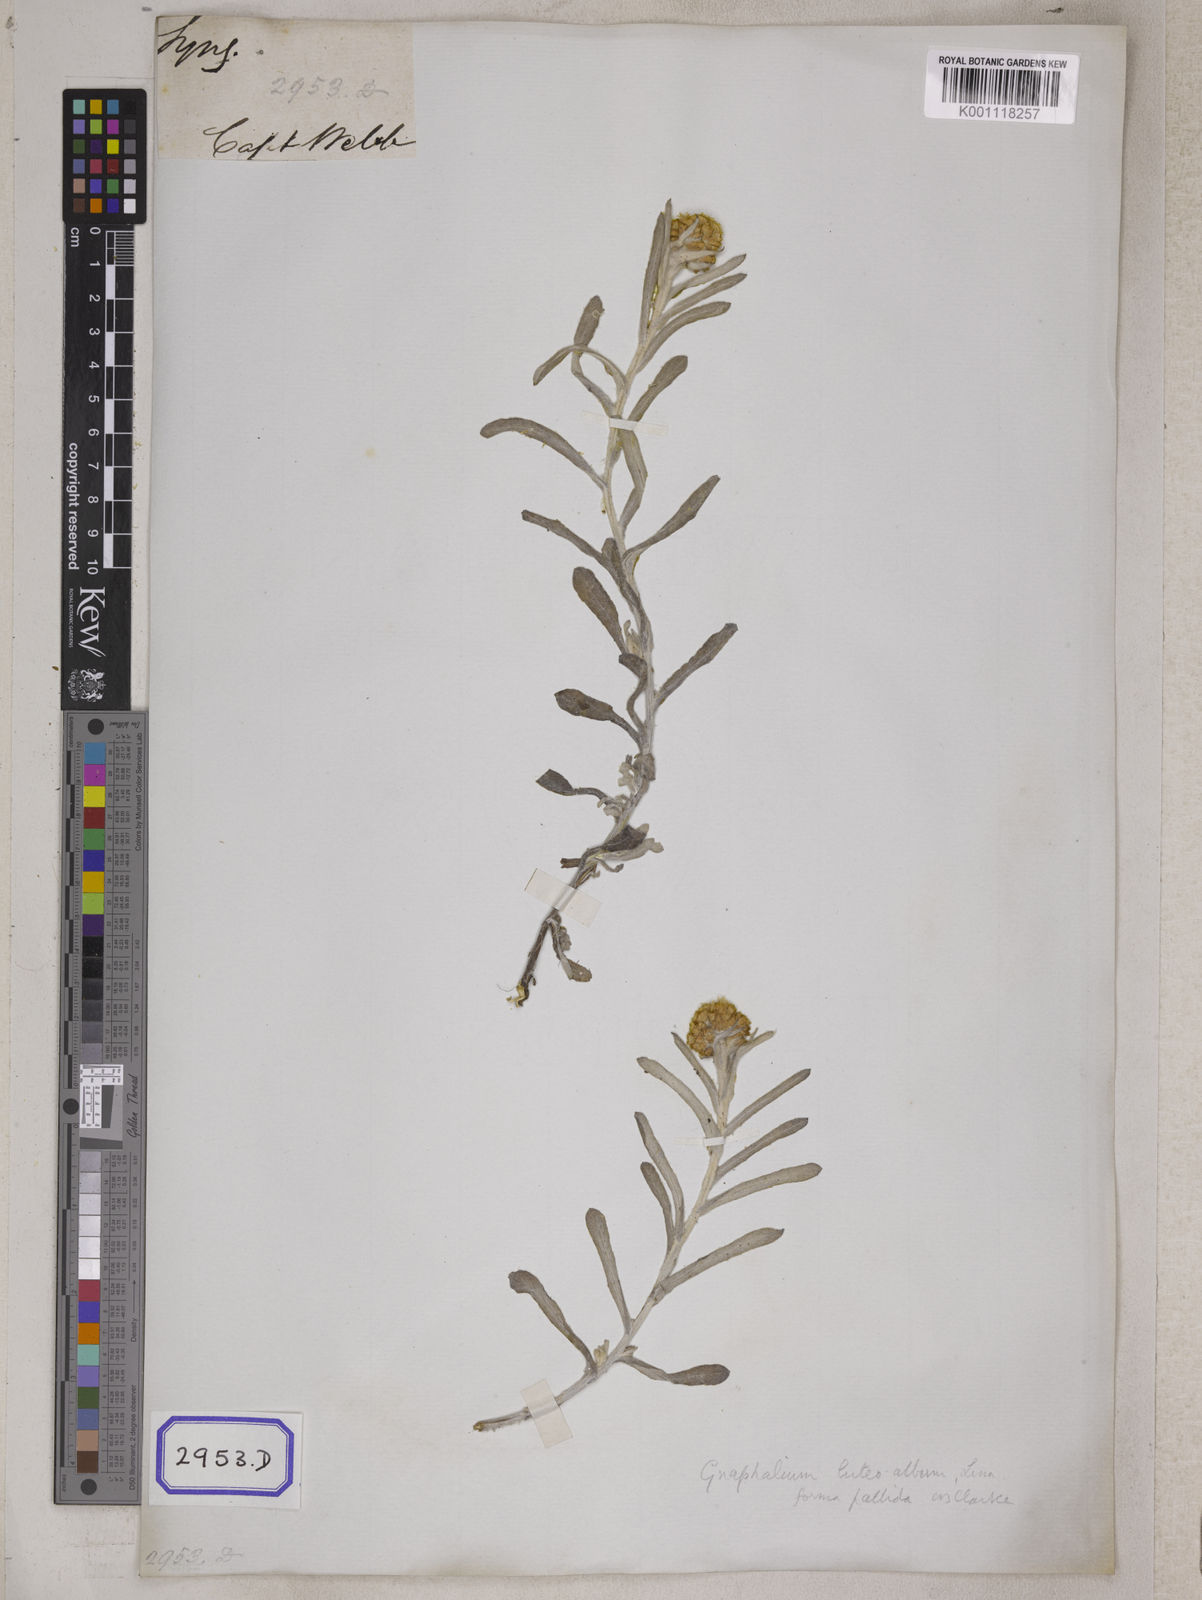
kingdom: Plantae
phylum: Tracheophyta
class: Magnoliopsida
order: Asterales
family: Asteraceae
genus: Helichrysum
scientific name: Helichrysum luteoalbum
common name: Daisy
